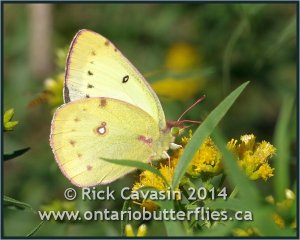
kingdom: Animalia
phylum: Arthropoda
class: Insecta
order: Lepidoptera
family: Pieridae
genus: Colias
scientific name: Colias philodice
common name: Clouded Sulphur
